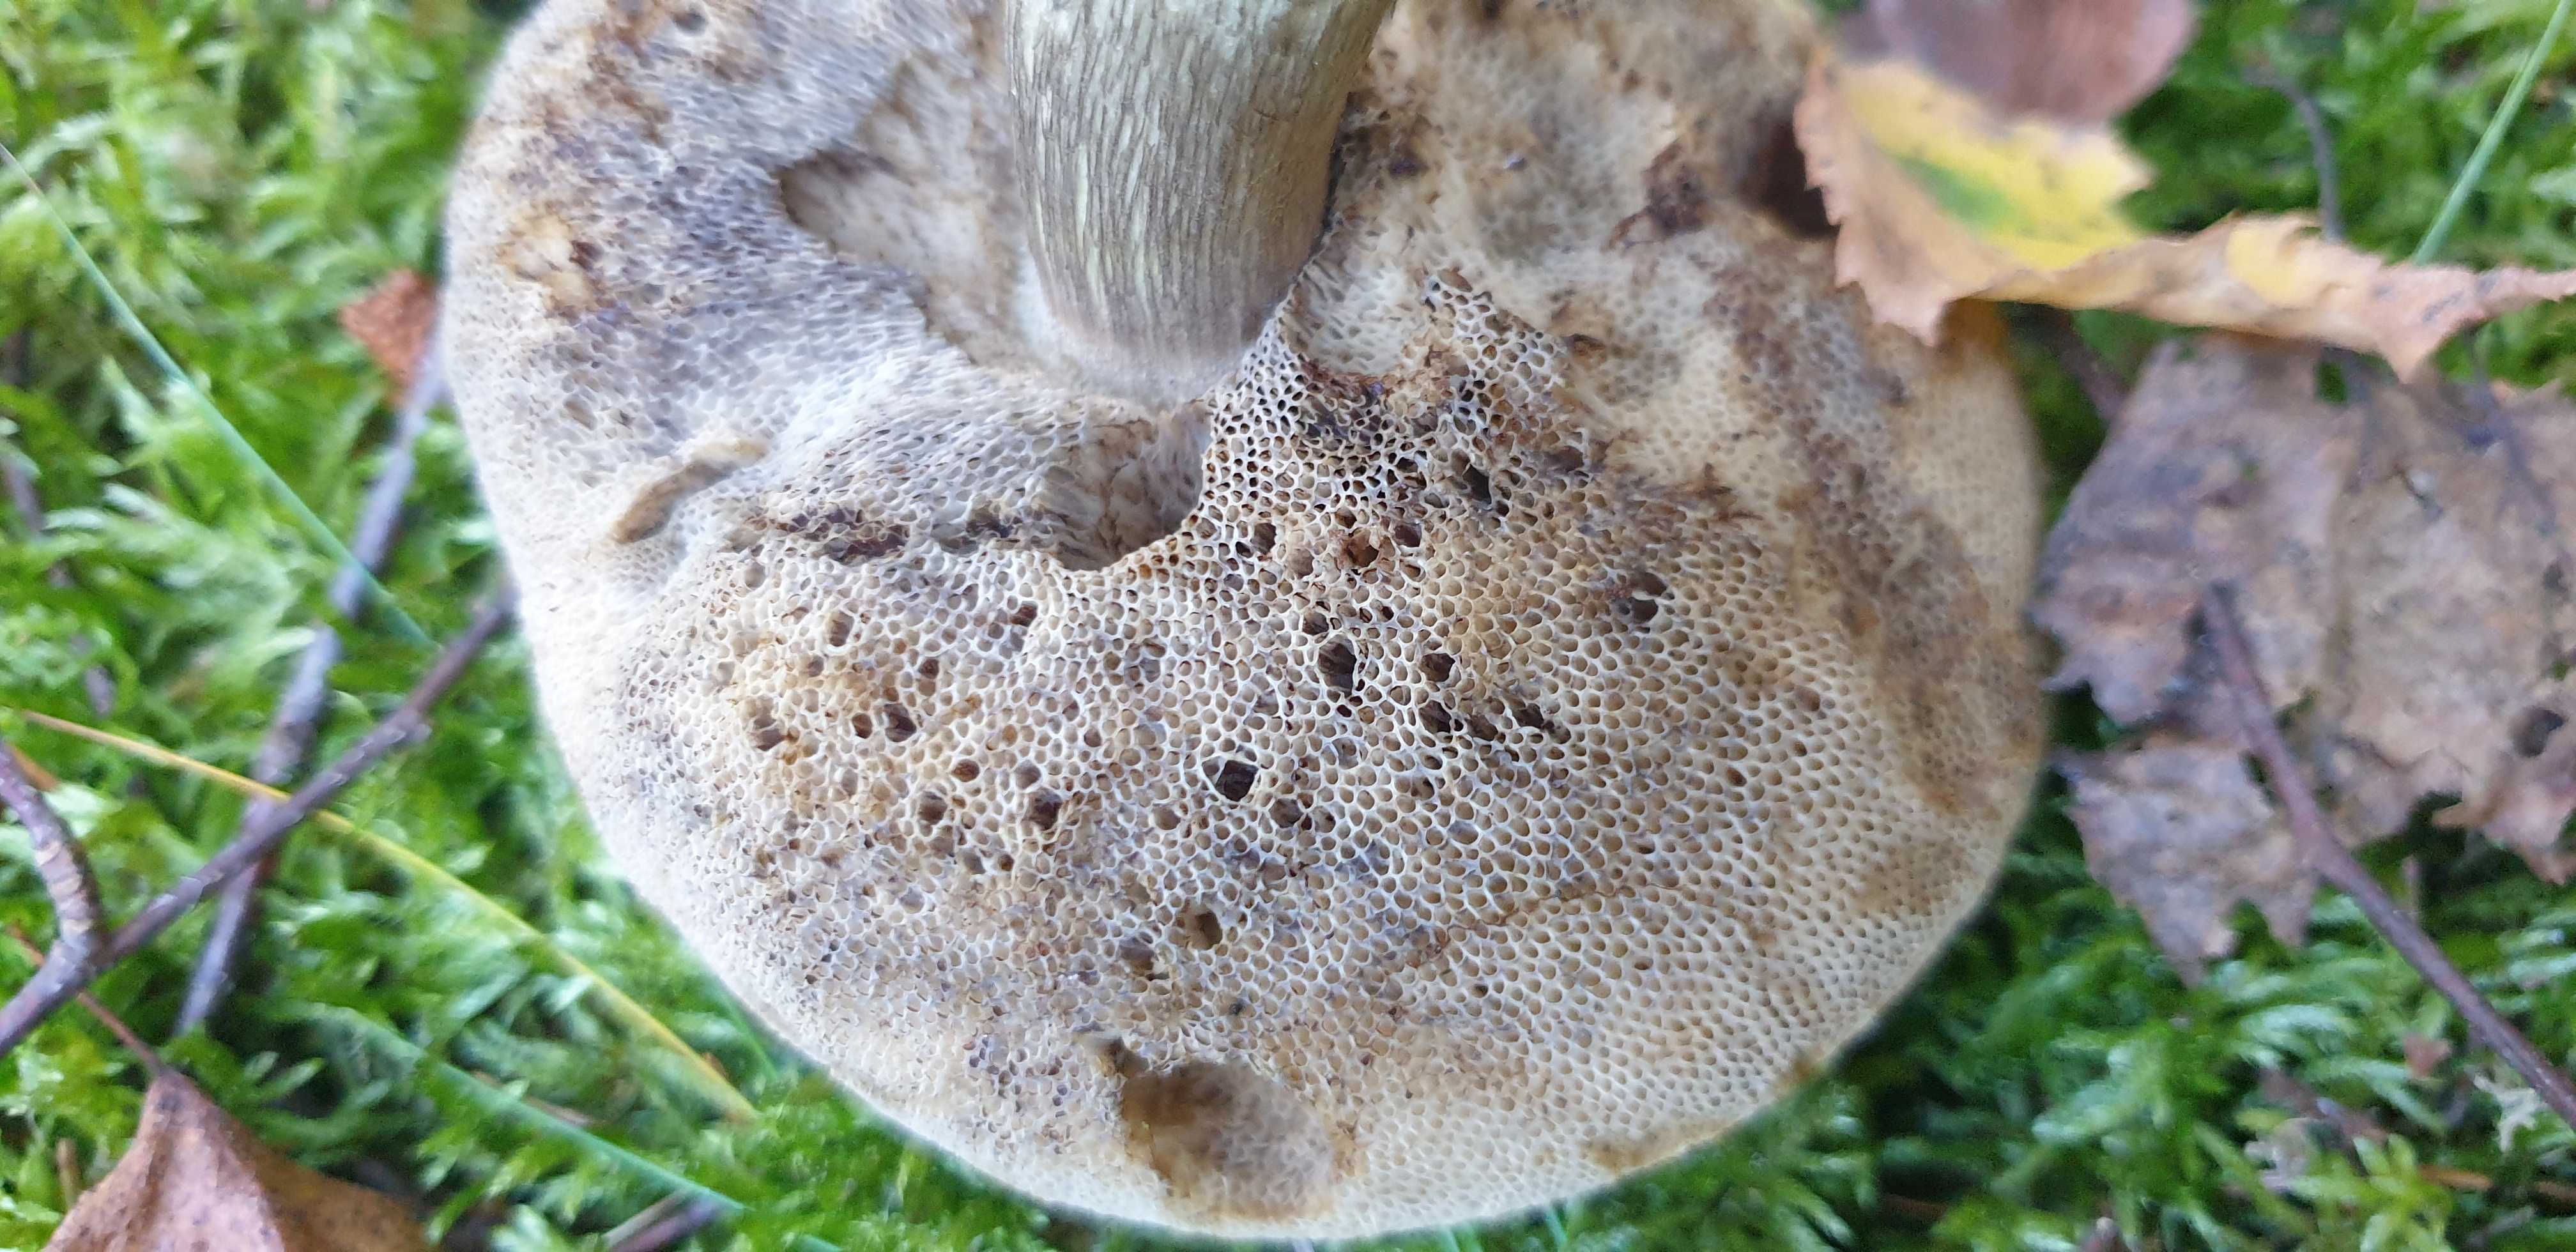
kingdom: Fungi
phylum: Basidiomycota
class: Agaricomycetes
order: Boletales
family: Boletaceae
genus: Leccinum
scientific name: Leccinum
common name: skælrørhat
